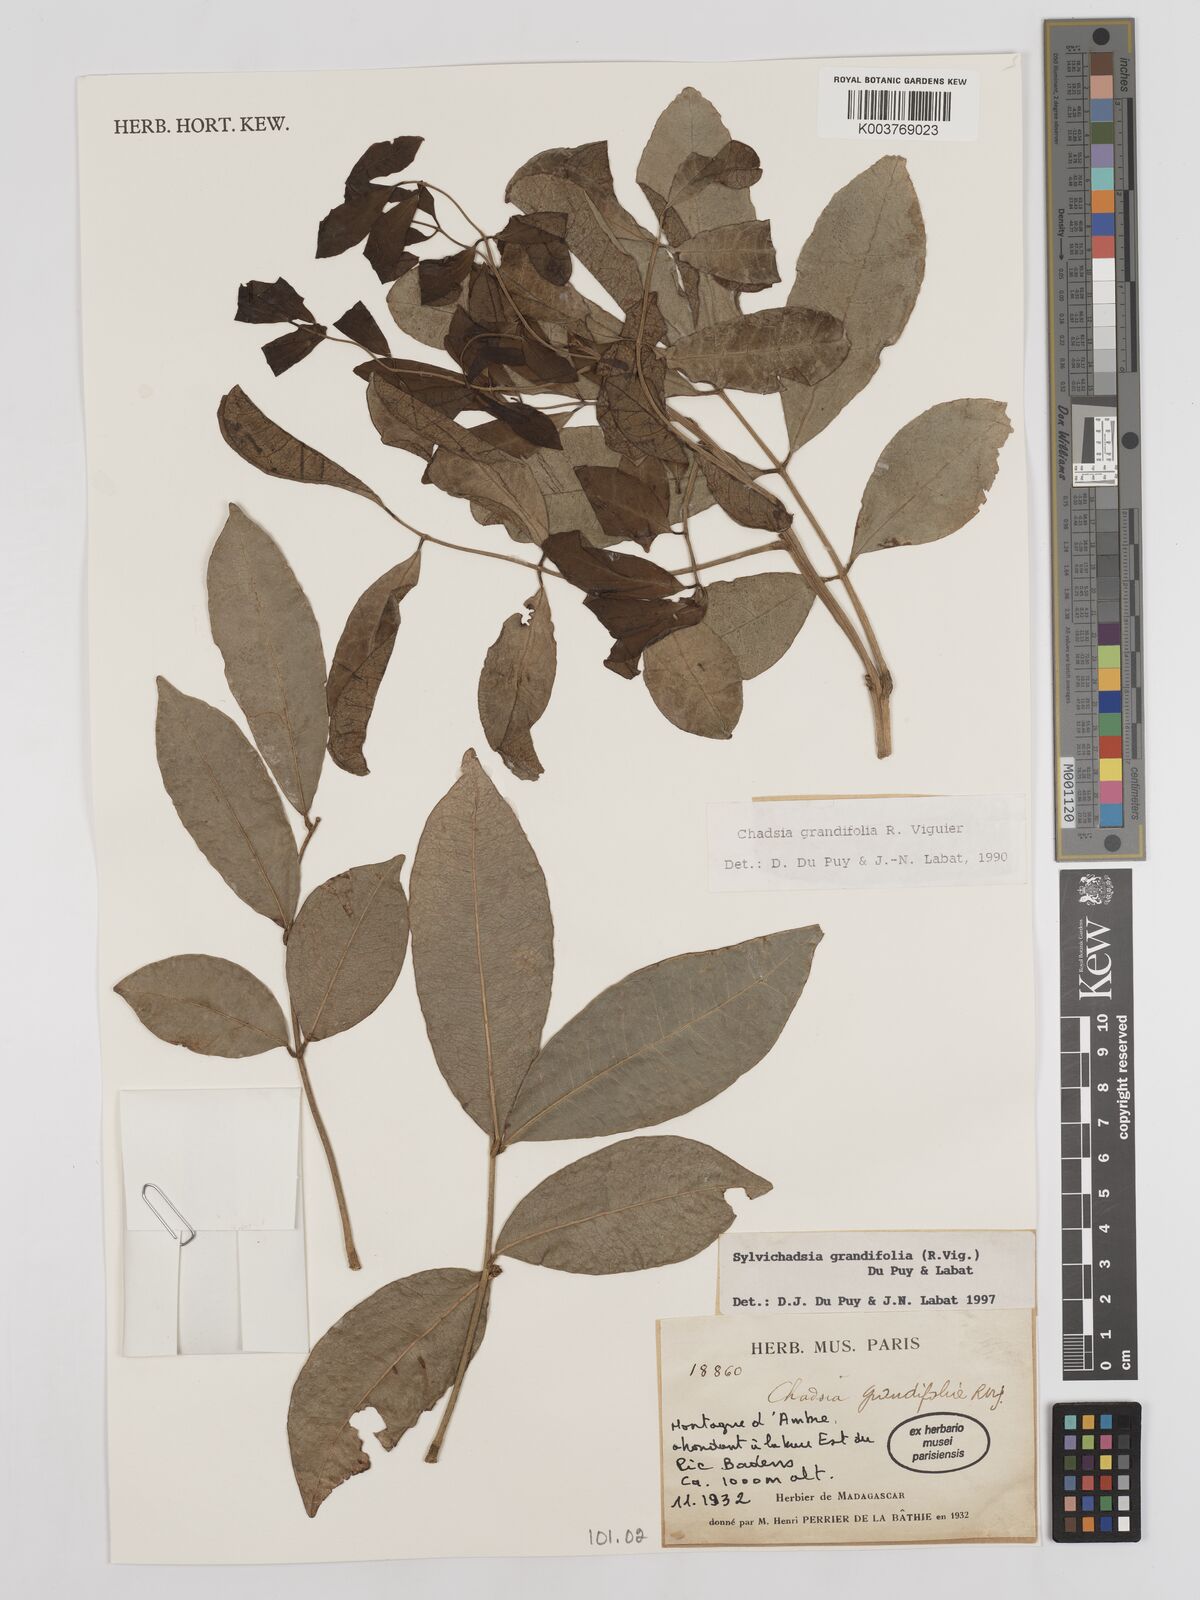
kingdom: Plantae
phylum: Tracheophyta
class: Magnoliopsida
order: Fabales
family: Fabaceae
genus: Sylvichadsia
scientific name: Sylvichadsia grandifolia
